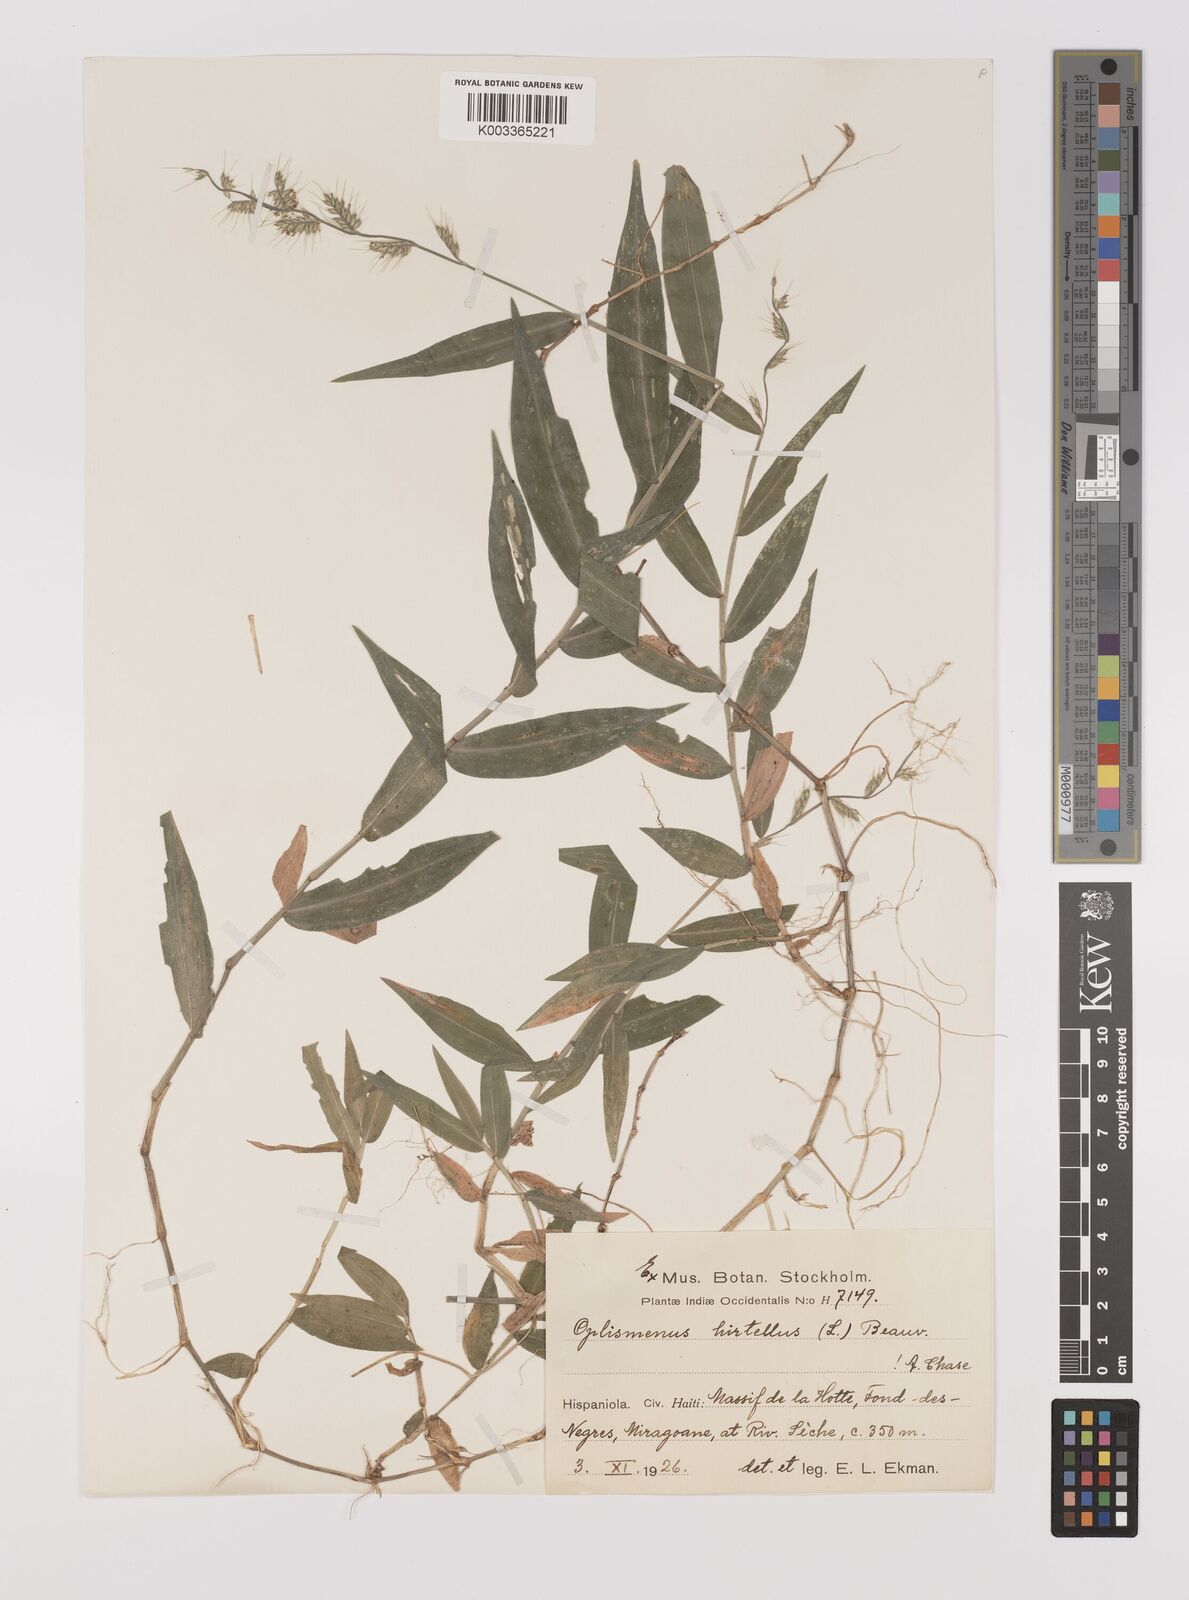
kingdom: Plantae
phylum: Tracheophyta
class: Liliopsida
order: Poales
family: Poaceae
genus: Oplismenus
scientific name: Oplismenus hirtellus
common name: Basketgrass
